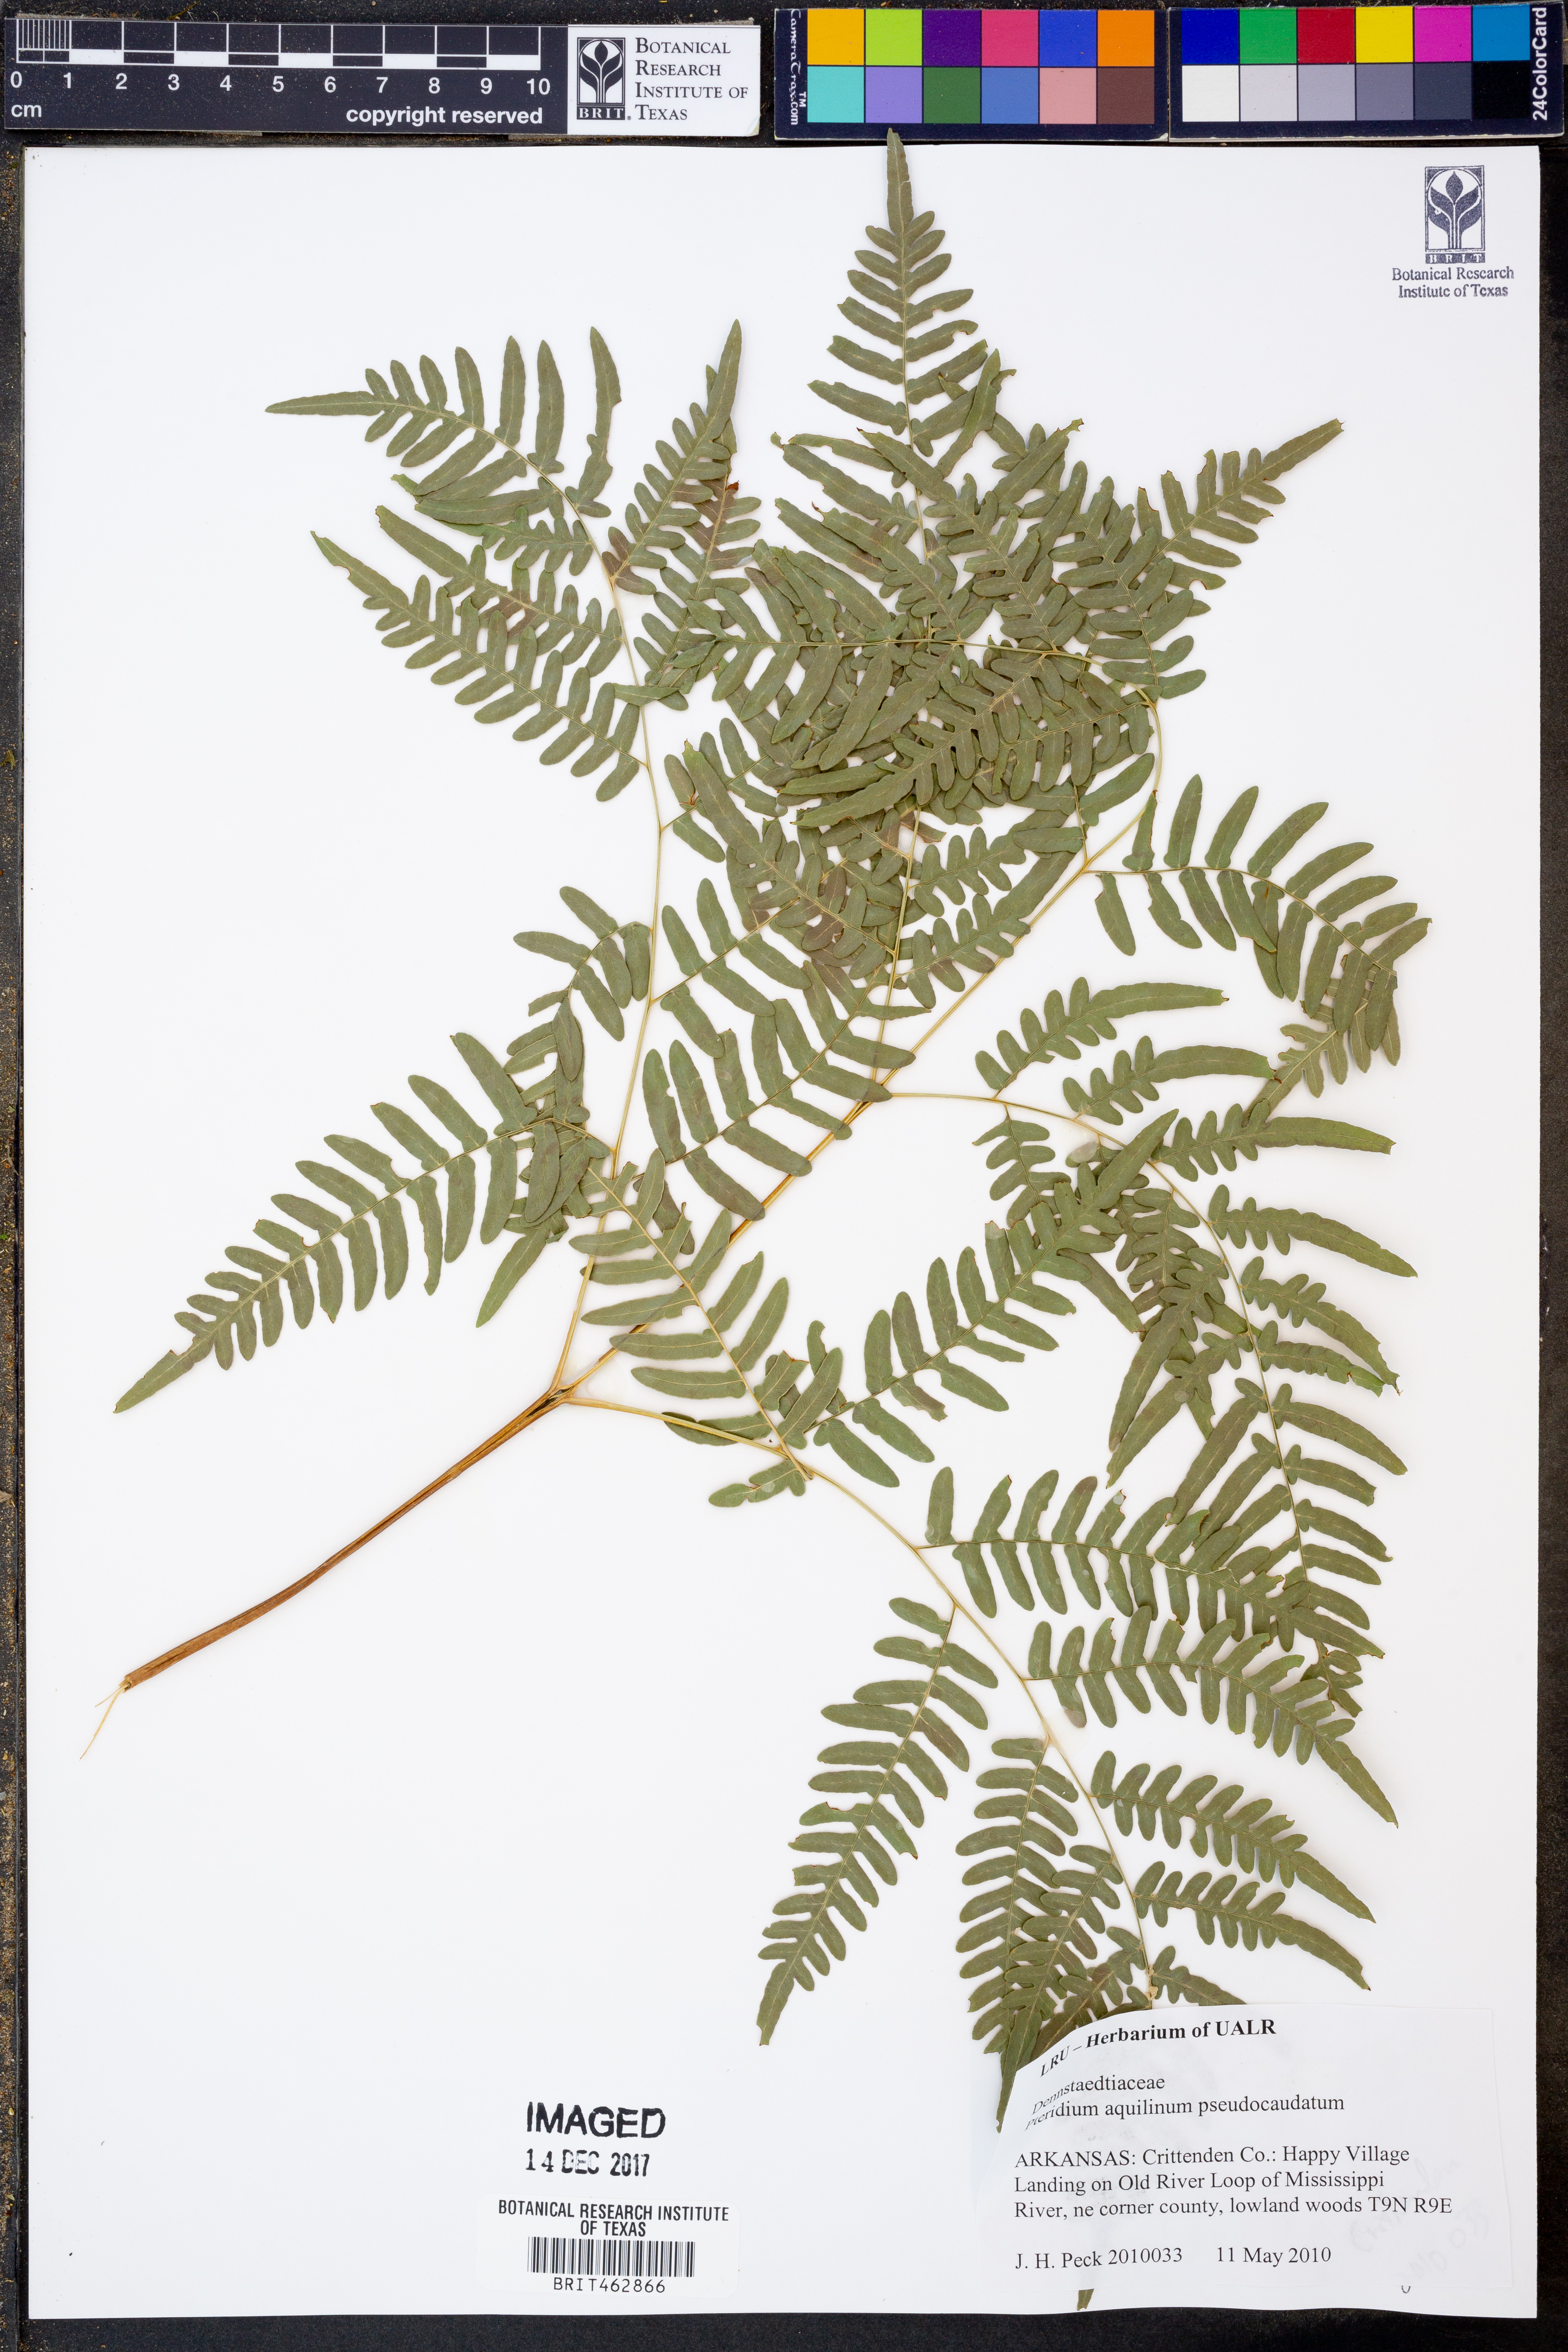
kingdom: Plantae
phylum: Tracheophyta
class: Polypodiopsida
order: Polypodiales
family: Dennstaedtiaceae
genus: Pteridium
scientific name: Pteridium aquilinum
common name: Bracken
